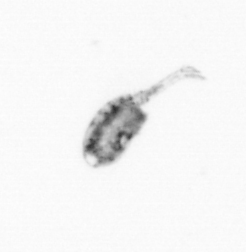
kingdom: Animalia
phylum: Arthropoda
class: Copepoda
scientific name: Copepoda
